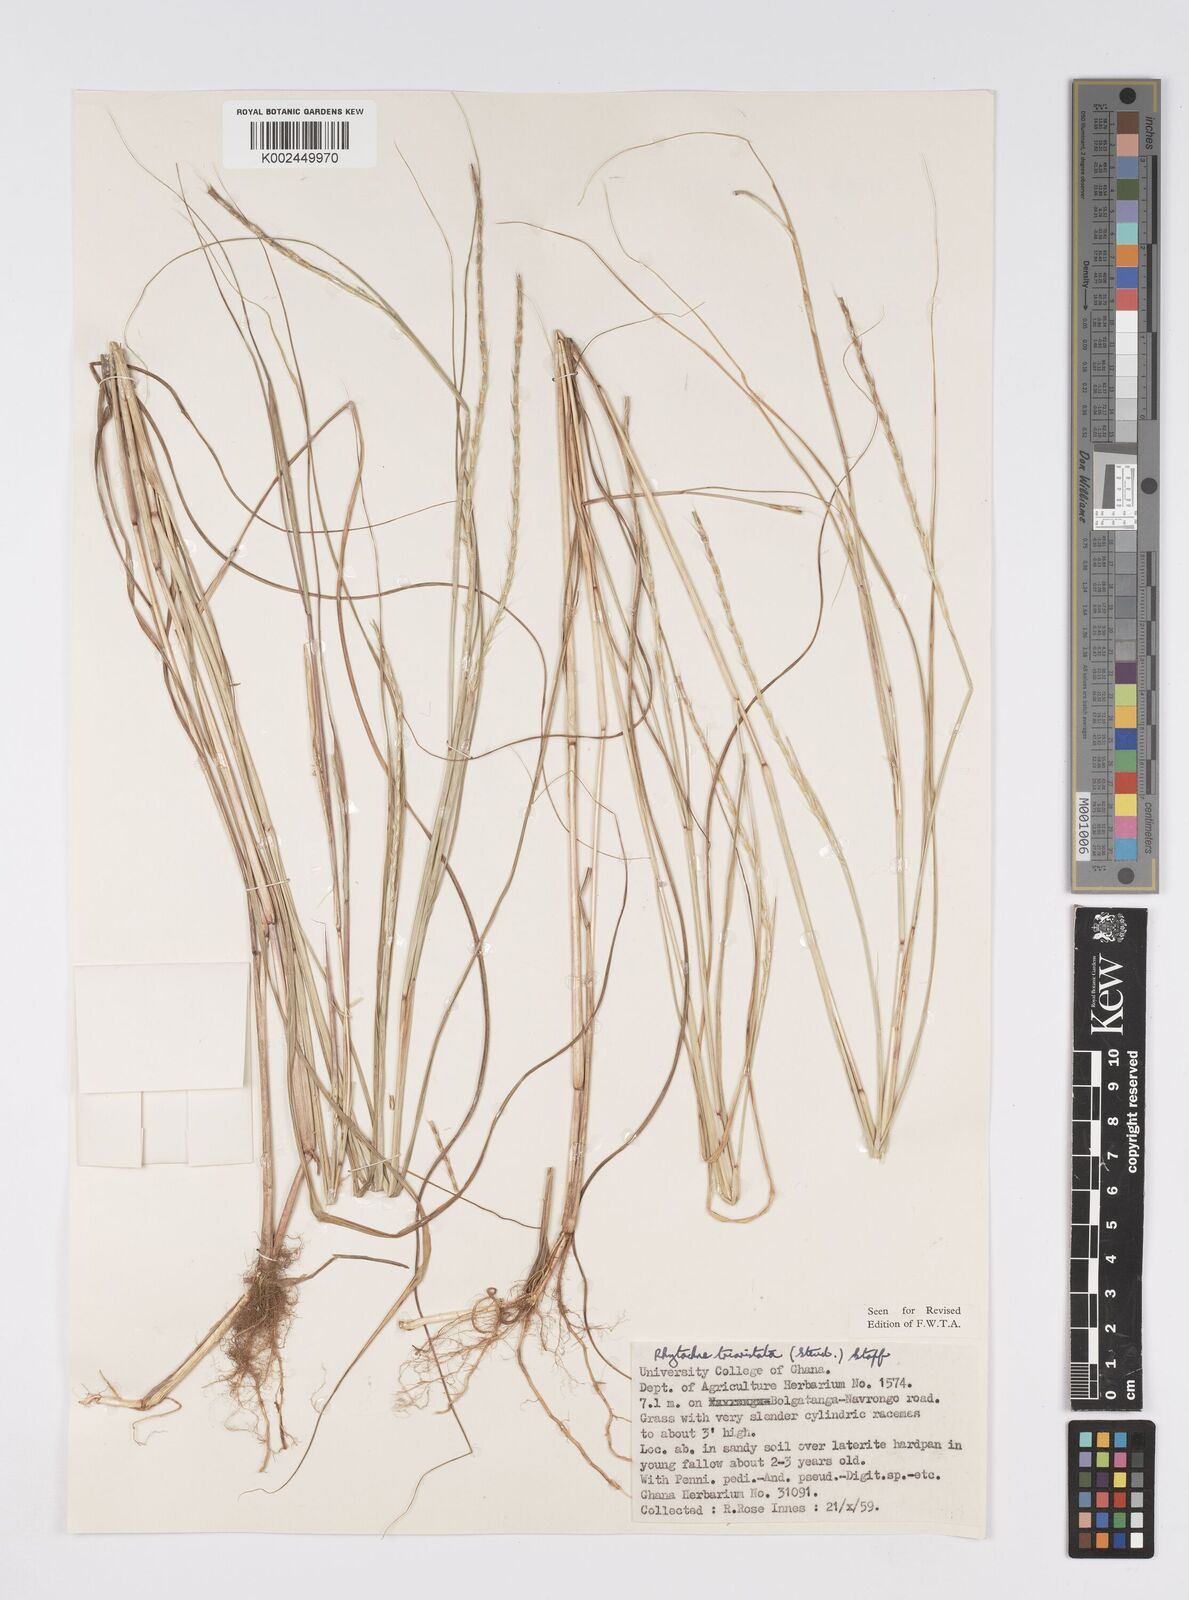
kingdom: Plantae
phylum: Tracheophyta
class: Liliopsida
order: Poales
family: Poaceae
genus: Rhytachne
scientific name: Rhytachne triaristata
